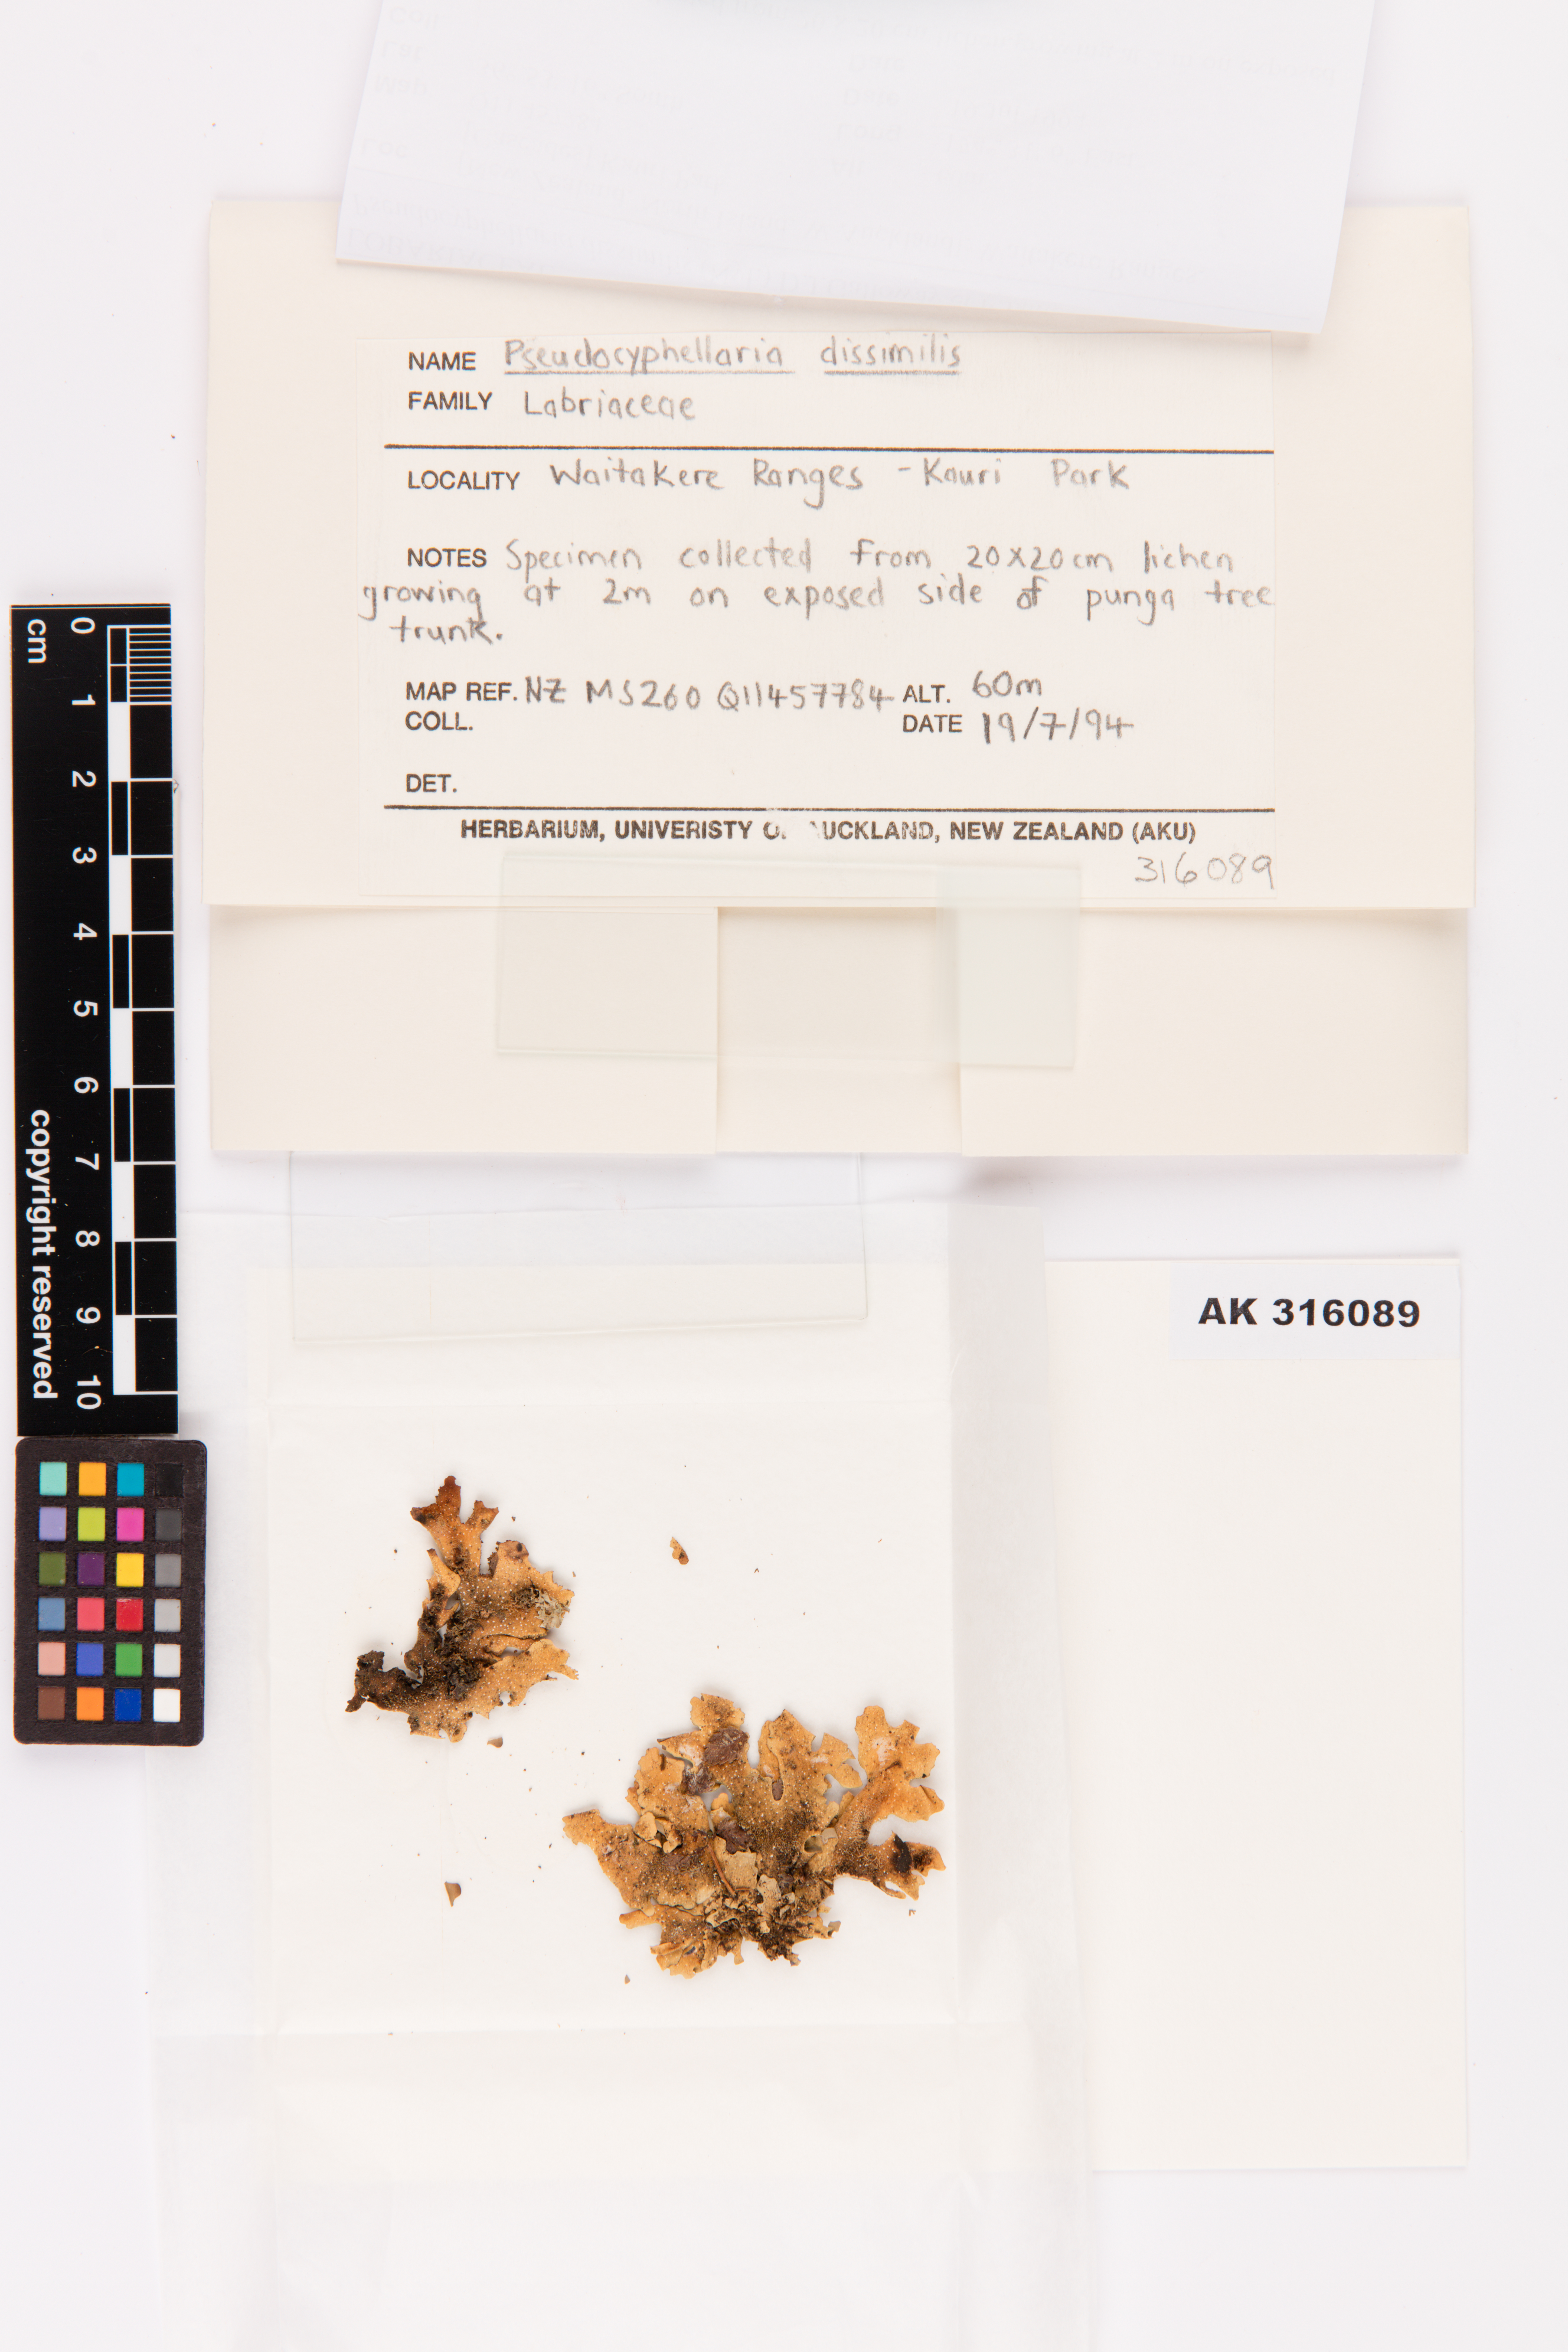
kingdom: Fungi
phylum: Ascomycota
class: Lecanoromycetes
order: Peltigerales
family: Lobariaceae
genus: Pseudocyphellaria
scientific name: Pseudocyphellaria dissimilis
